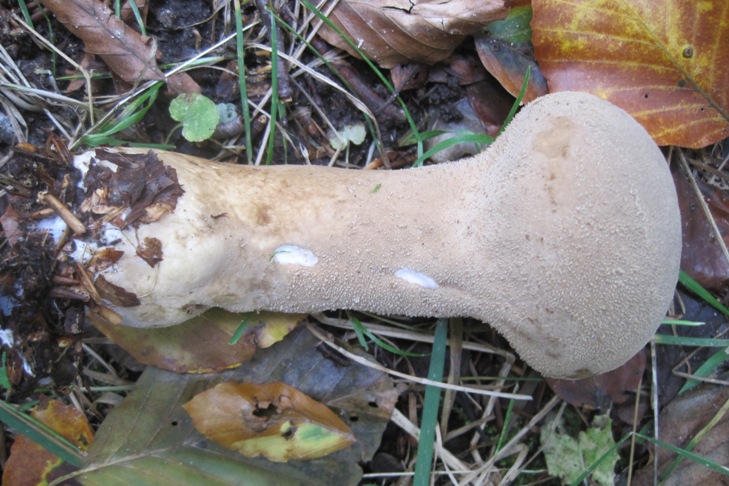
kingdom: Fungi
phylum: Basidiomycota
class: Agaricomycetes
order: Agaricales
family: Lycoperdaceae
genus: Lycoperdon
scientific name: Lycoperdon excipuliforme
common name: højstokket støvbold
